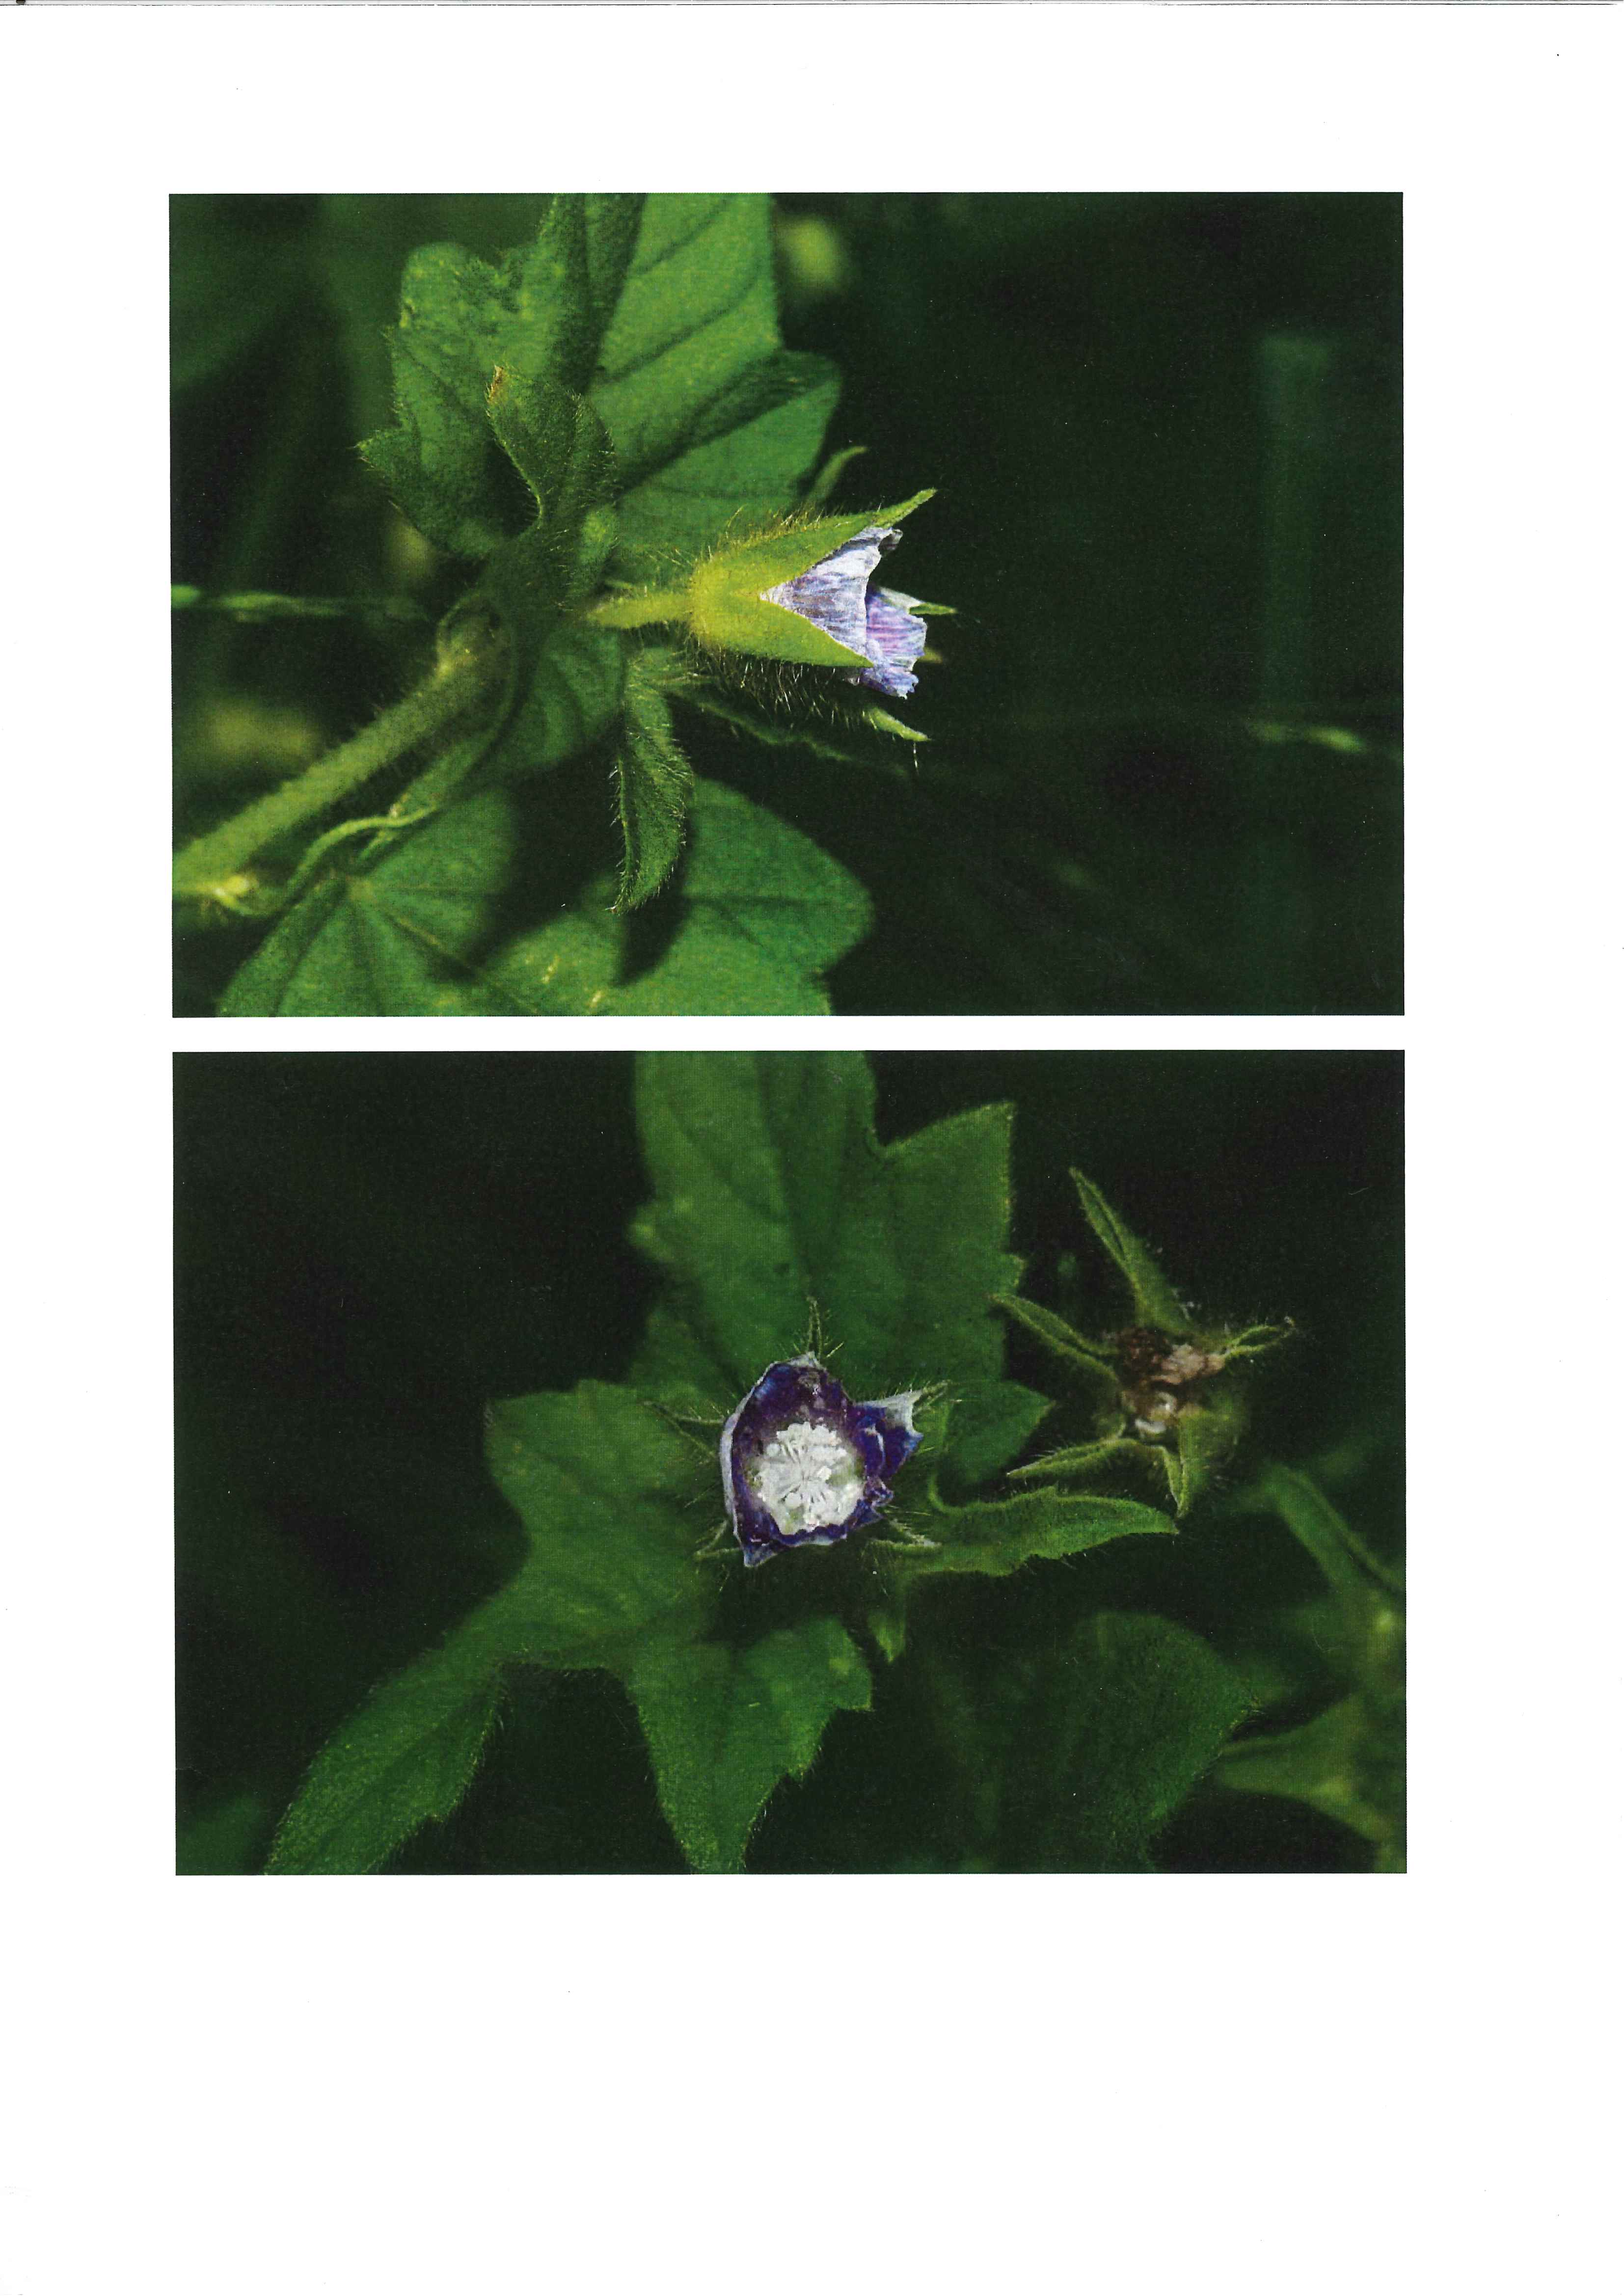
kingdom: Plantae
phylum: Tracheophyta
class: Magnoliopsida
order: Malvales
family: Malvaceae
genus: Anoda
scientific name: Anoda cristata
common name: Spurred anoda
